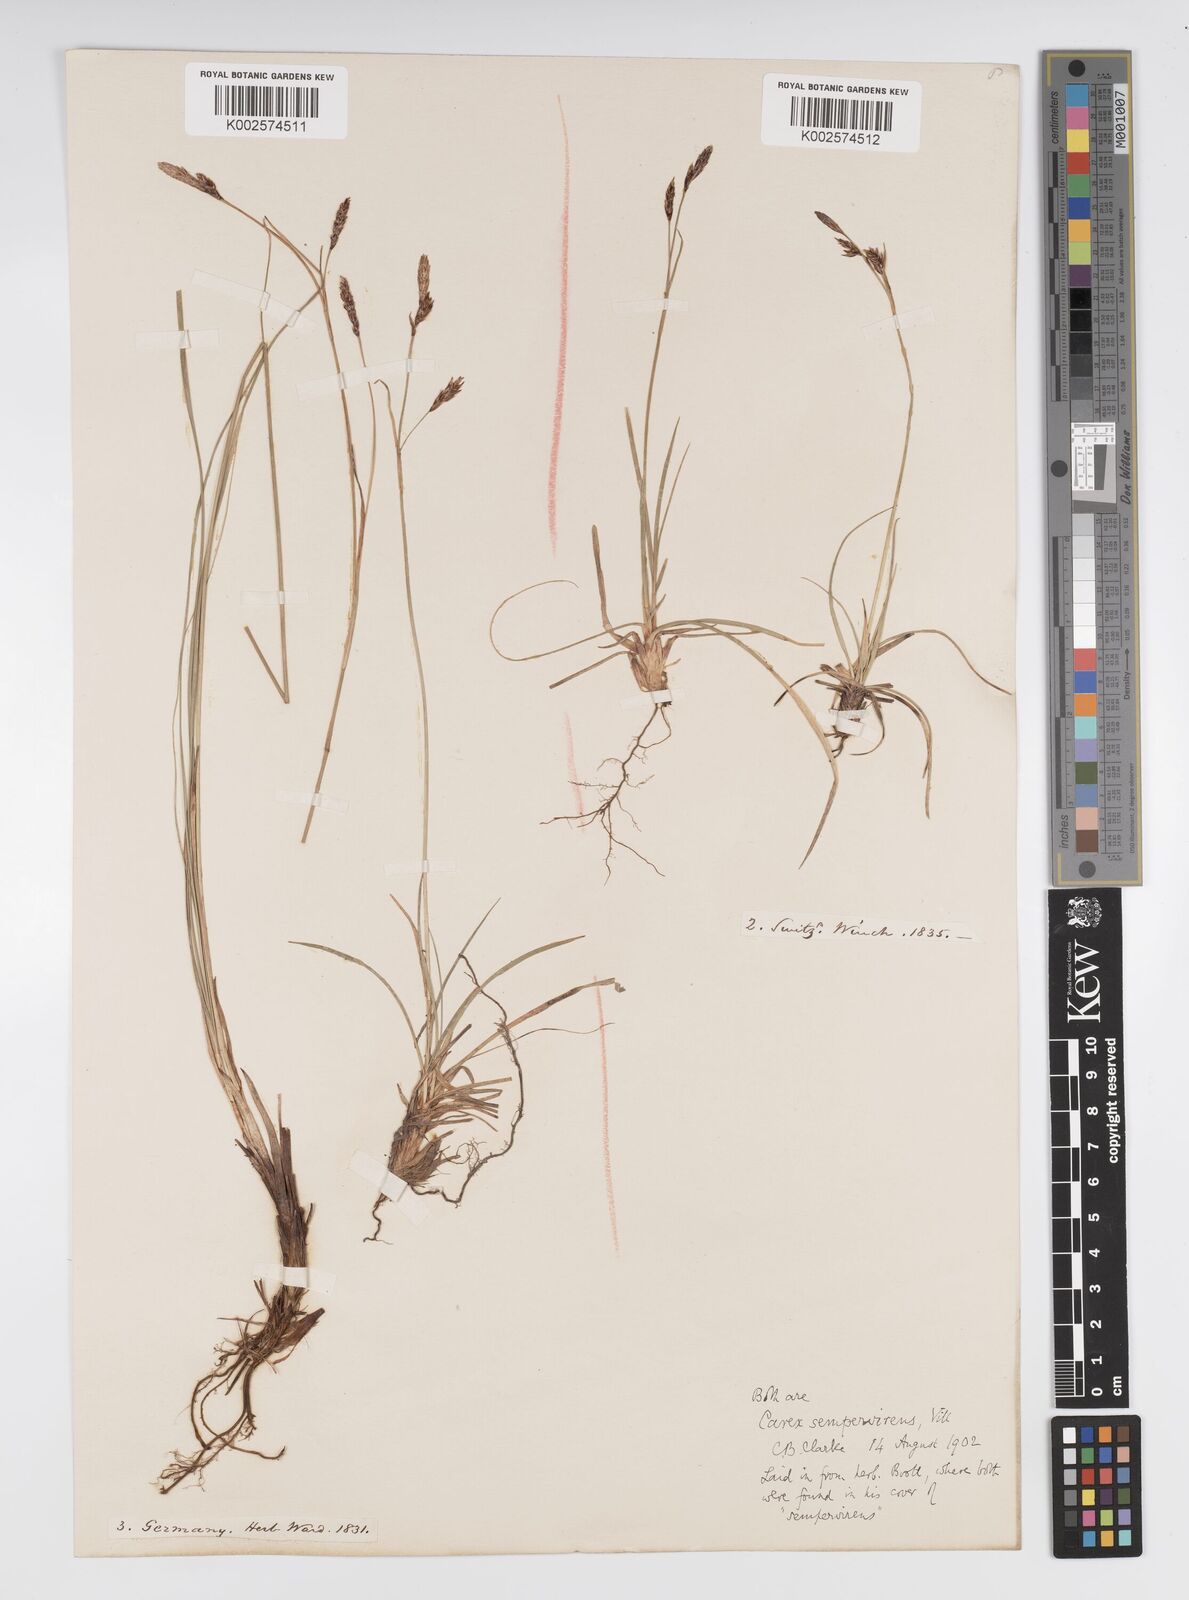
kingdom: Plantae
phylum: Tracheophyta
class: Liliopsida
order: Poales
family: Cyperaceae
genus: Carex
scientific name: Carex sempervirens
